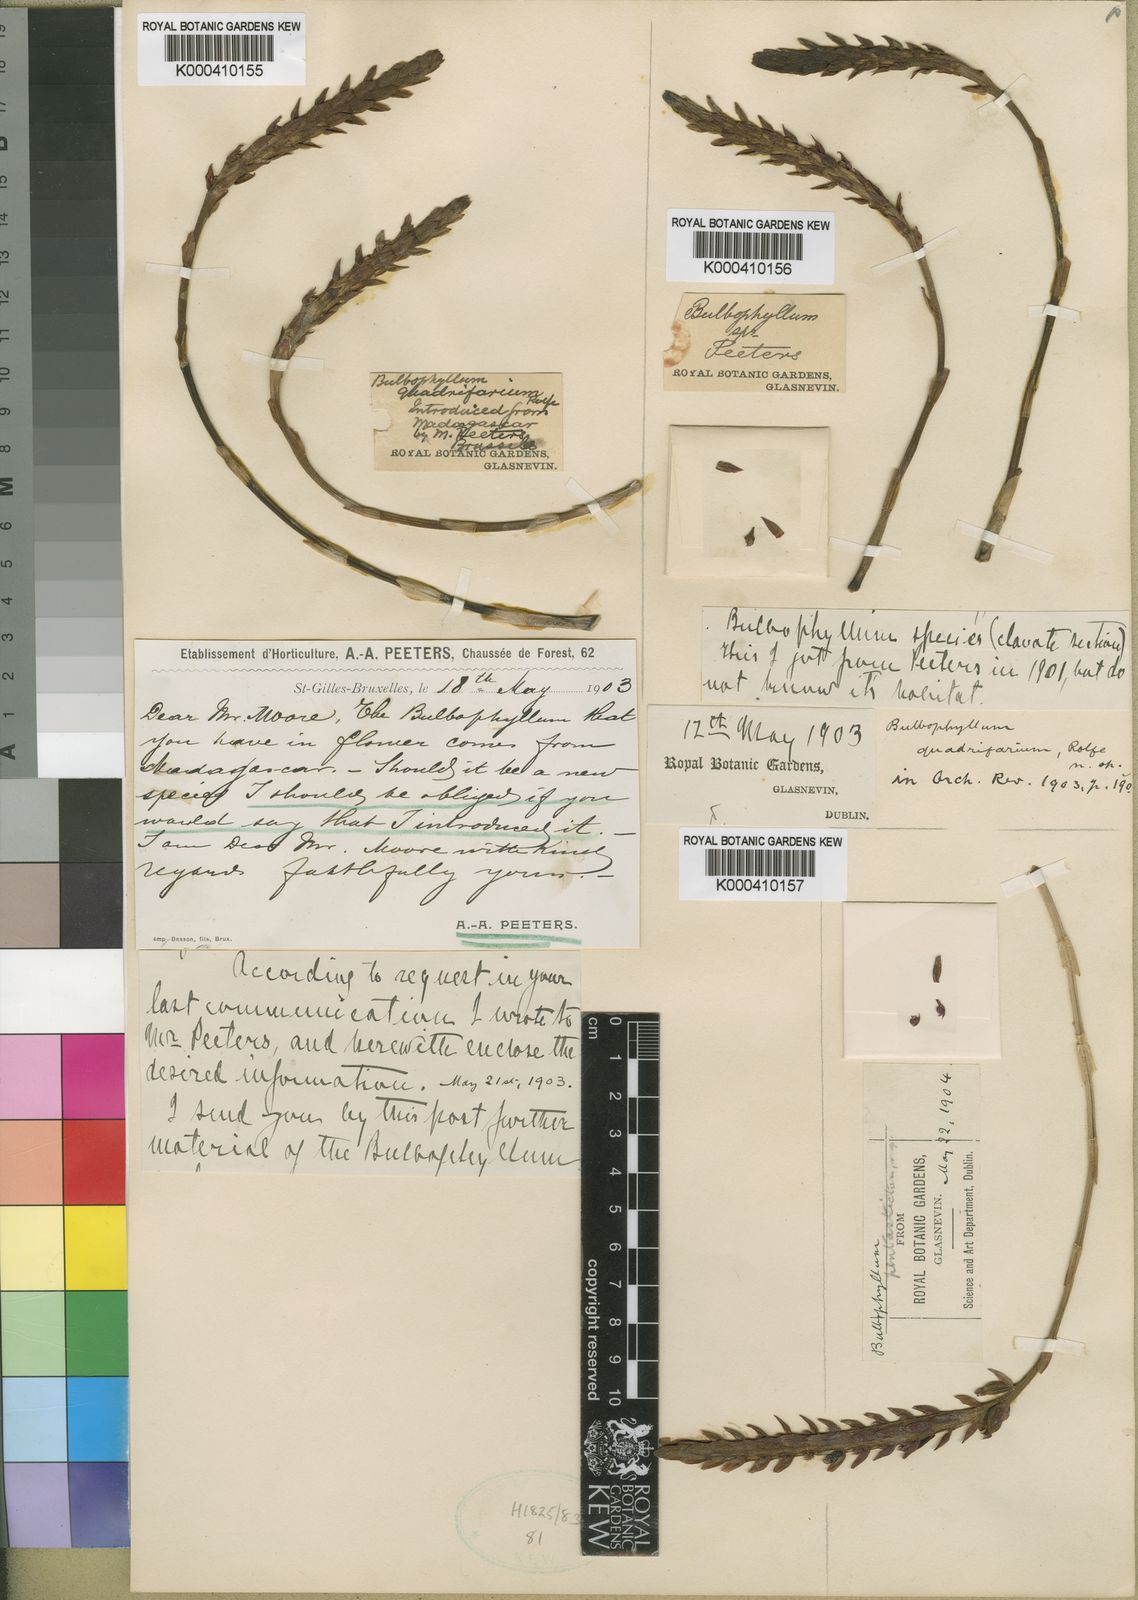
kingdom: Plantae
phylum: Tracheophyta
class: Liliopsida
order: Asparagales
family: Orchidaceae
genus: Bulbophyllum
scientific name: Bulbophyllum pentastichum
